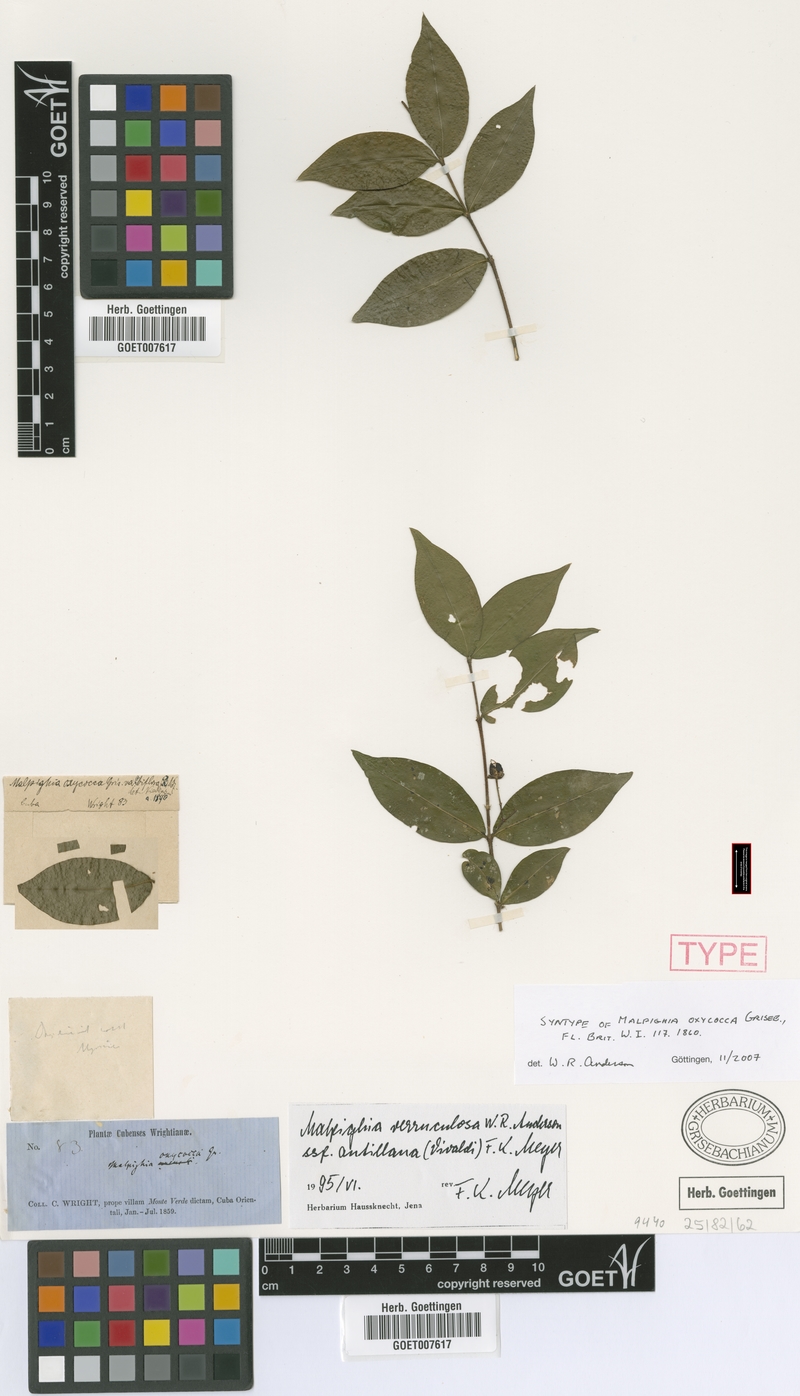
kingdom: Plantae
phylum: Tracheophyta
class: Magnoliopsida
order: Malpighiales
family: Malpighiaceae
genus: Malpighia
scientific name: Malpighia oxycocca
